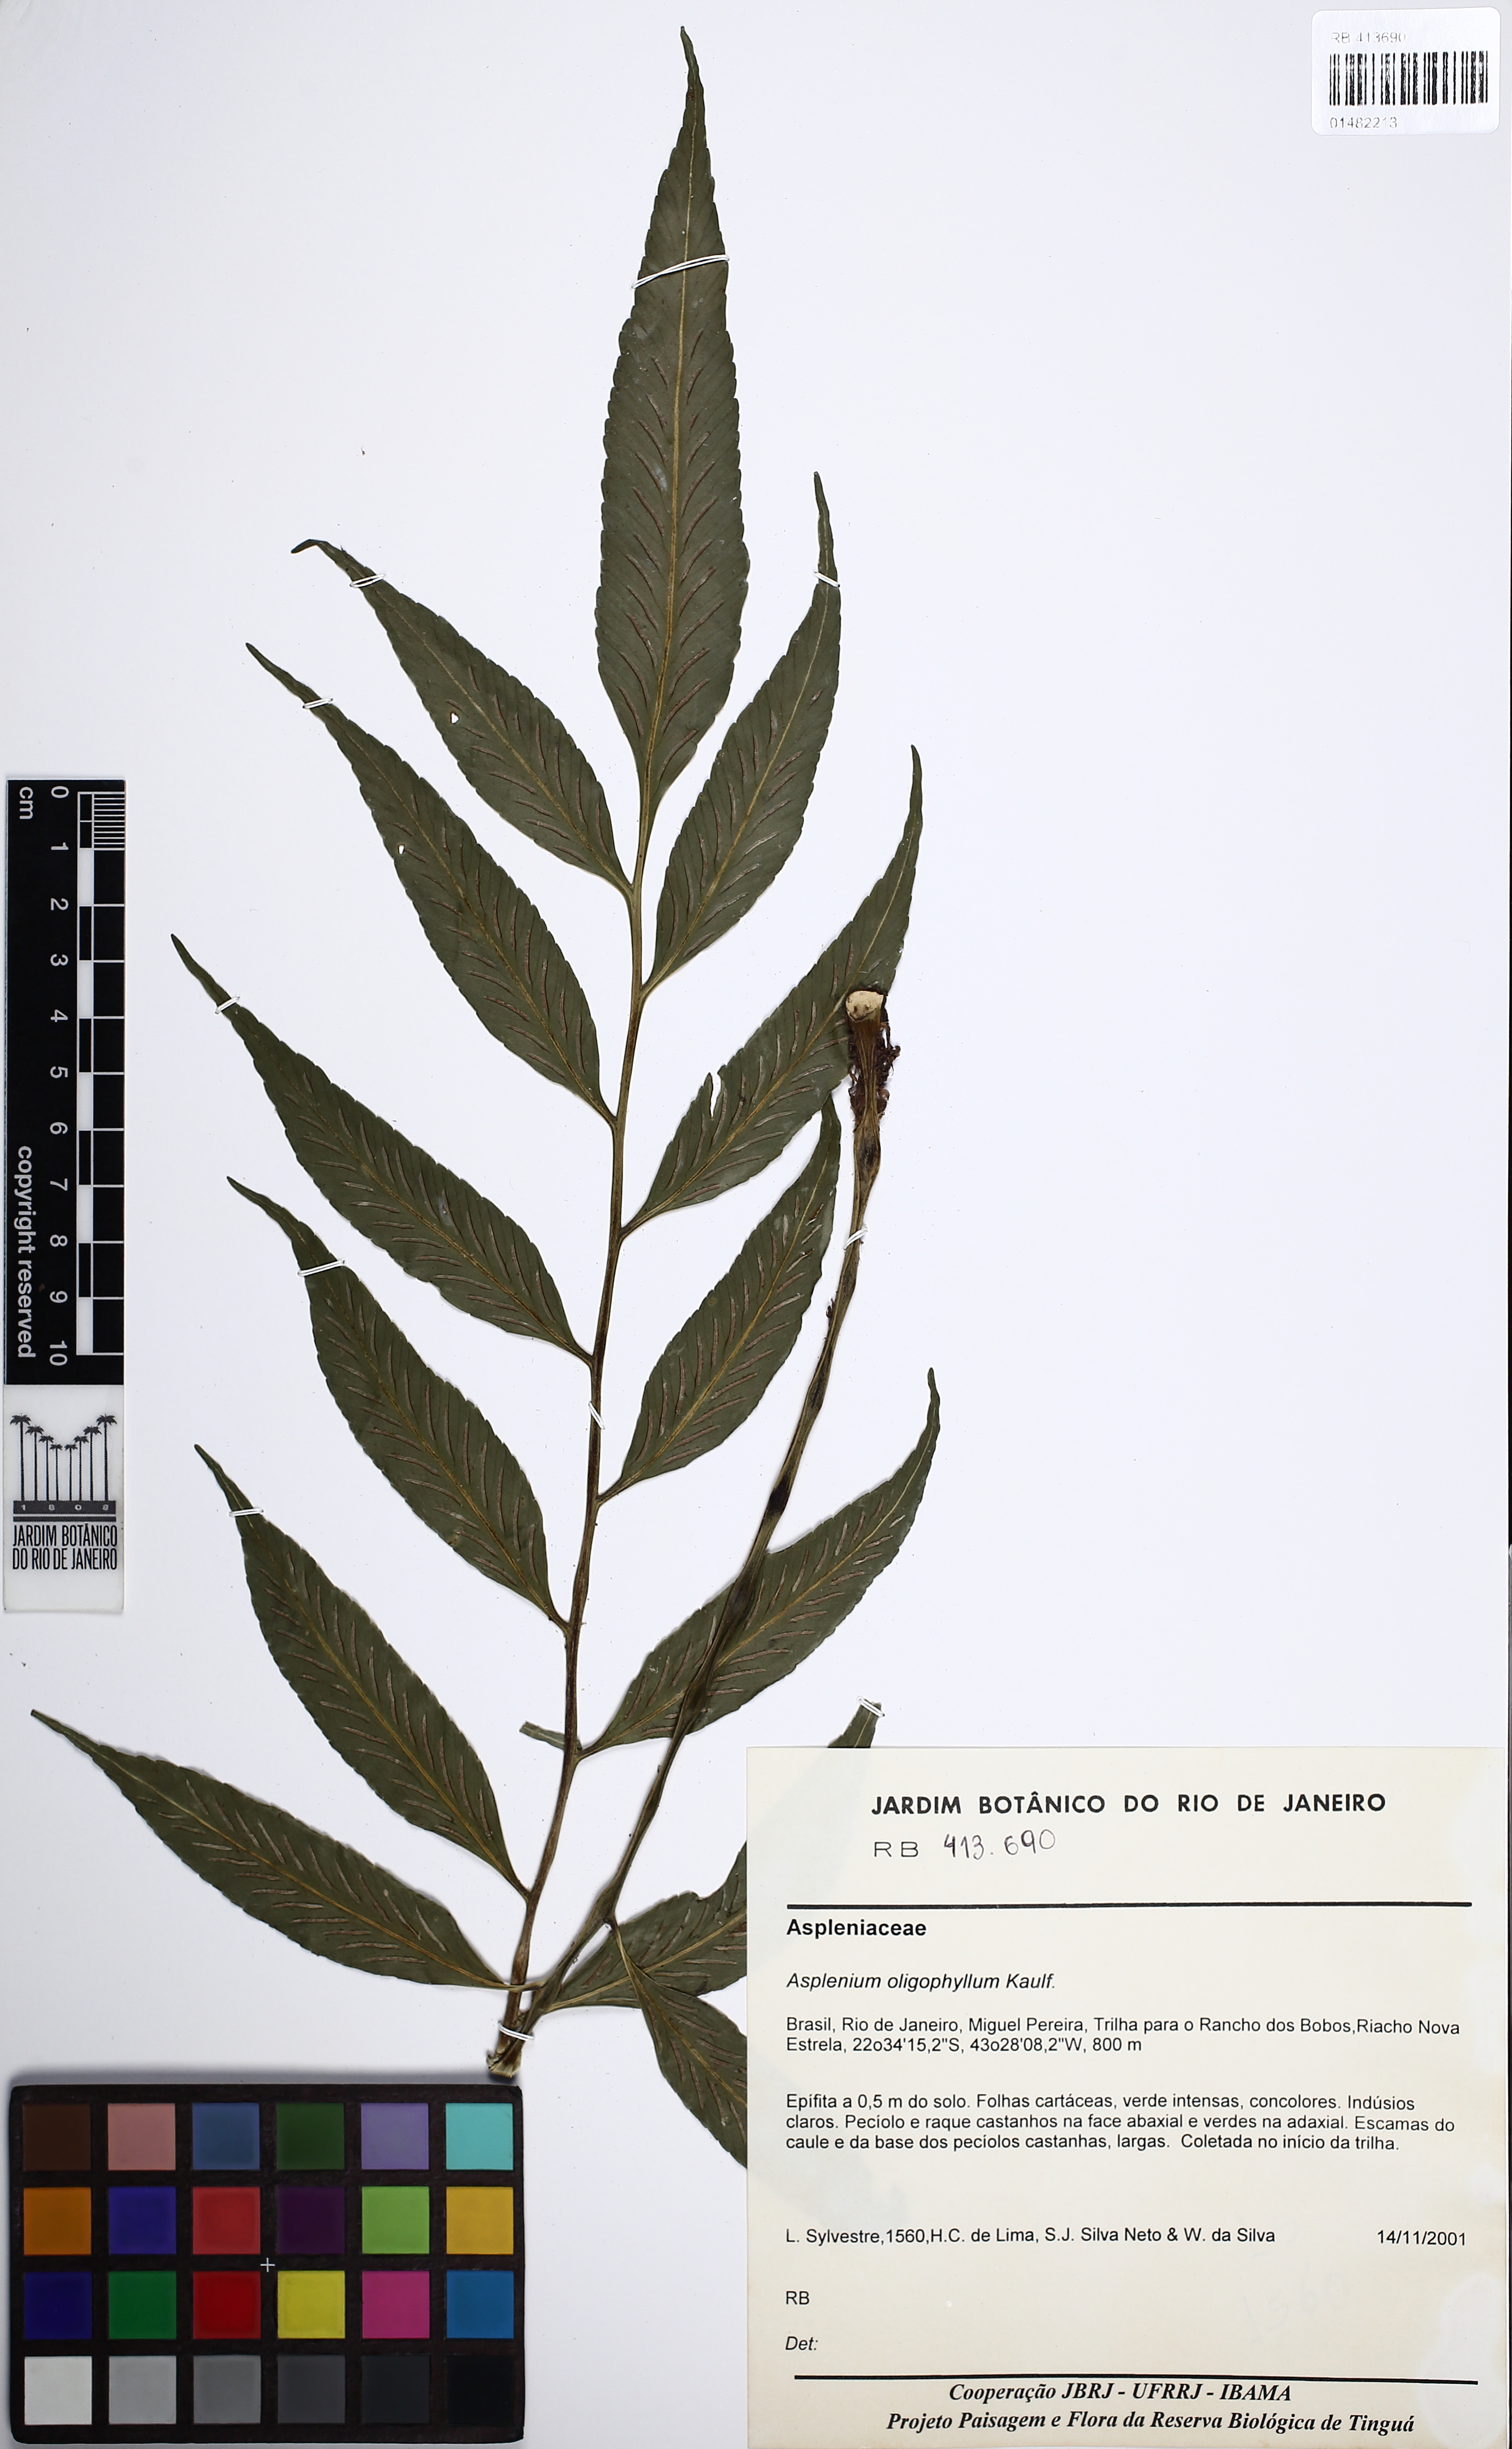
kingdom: Plantae
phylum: Tracheophyta
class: Polypodiopsida
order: Polypodiales
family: Aspleniaceae
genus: Asplenium
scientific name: Asplenium oligophyllum
